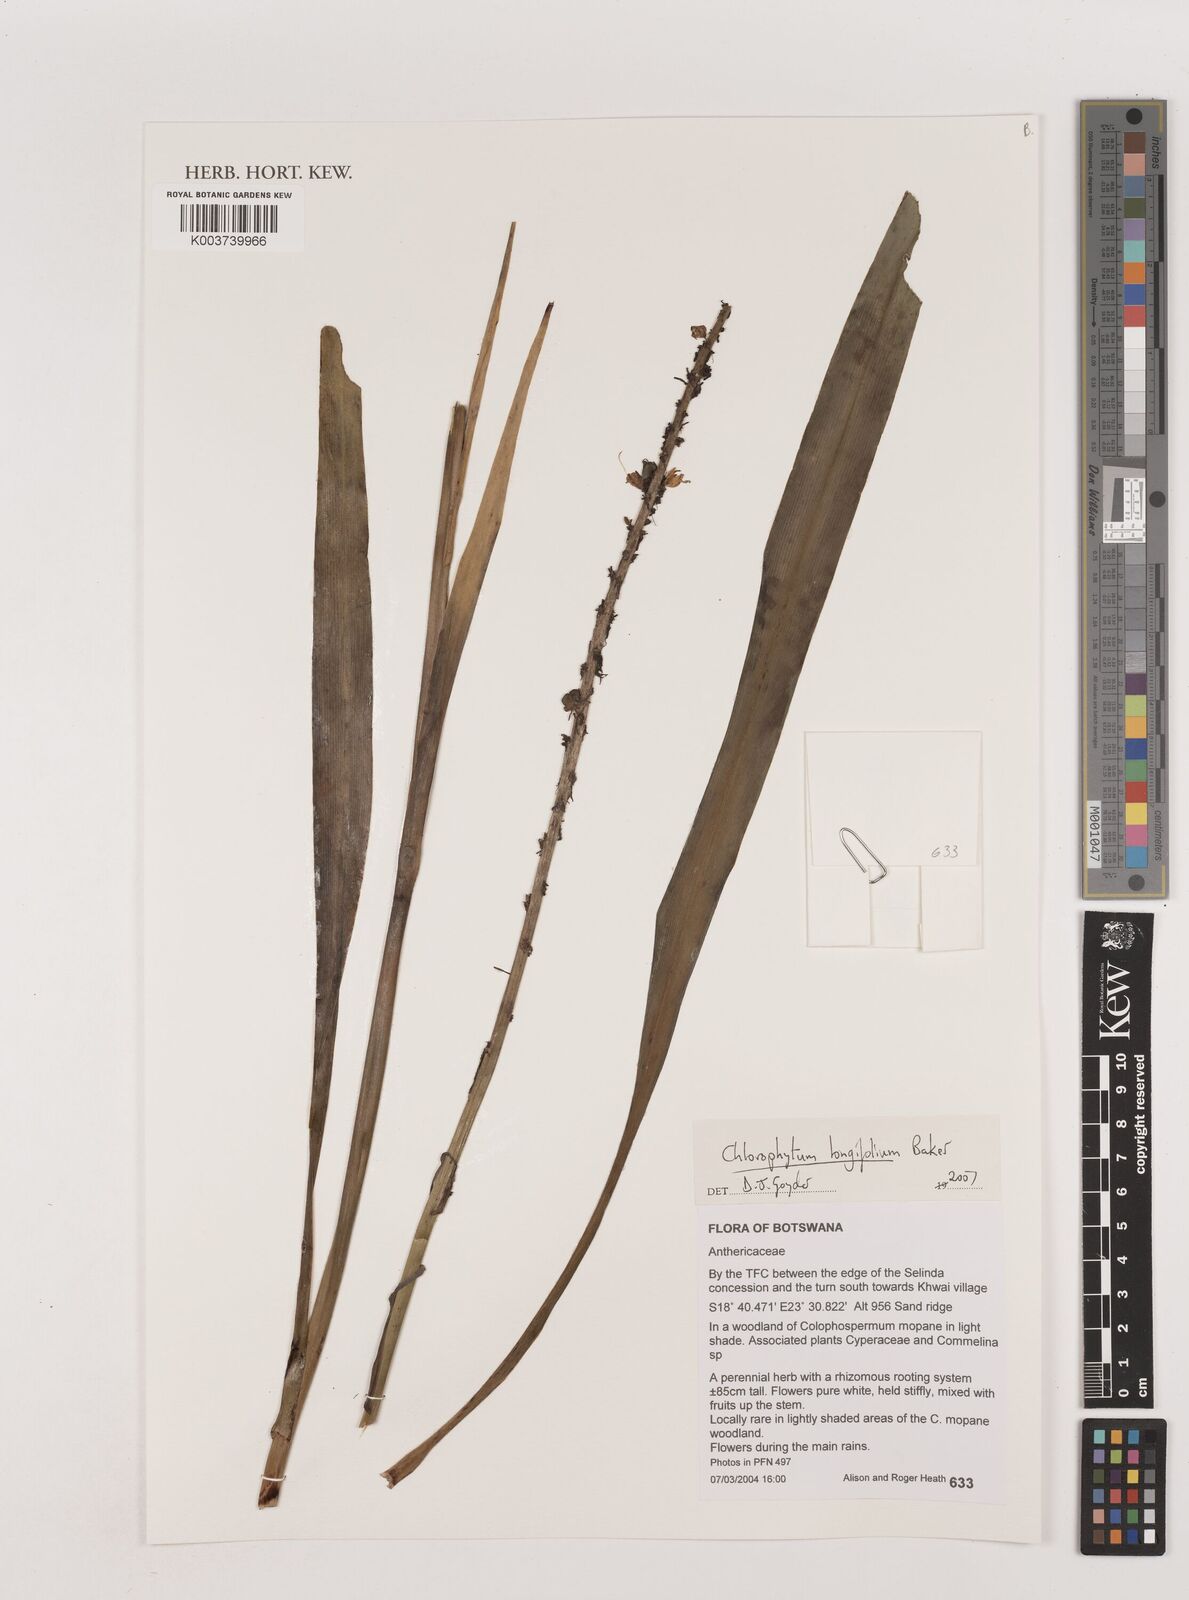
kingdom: Plantae
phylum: Tracheophyta
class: Liliopsida
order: Asparagales
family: Asparagaceae
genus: Chlorophytum
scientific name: Chlorophytum longifolium
